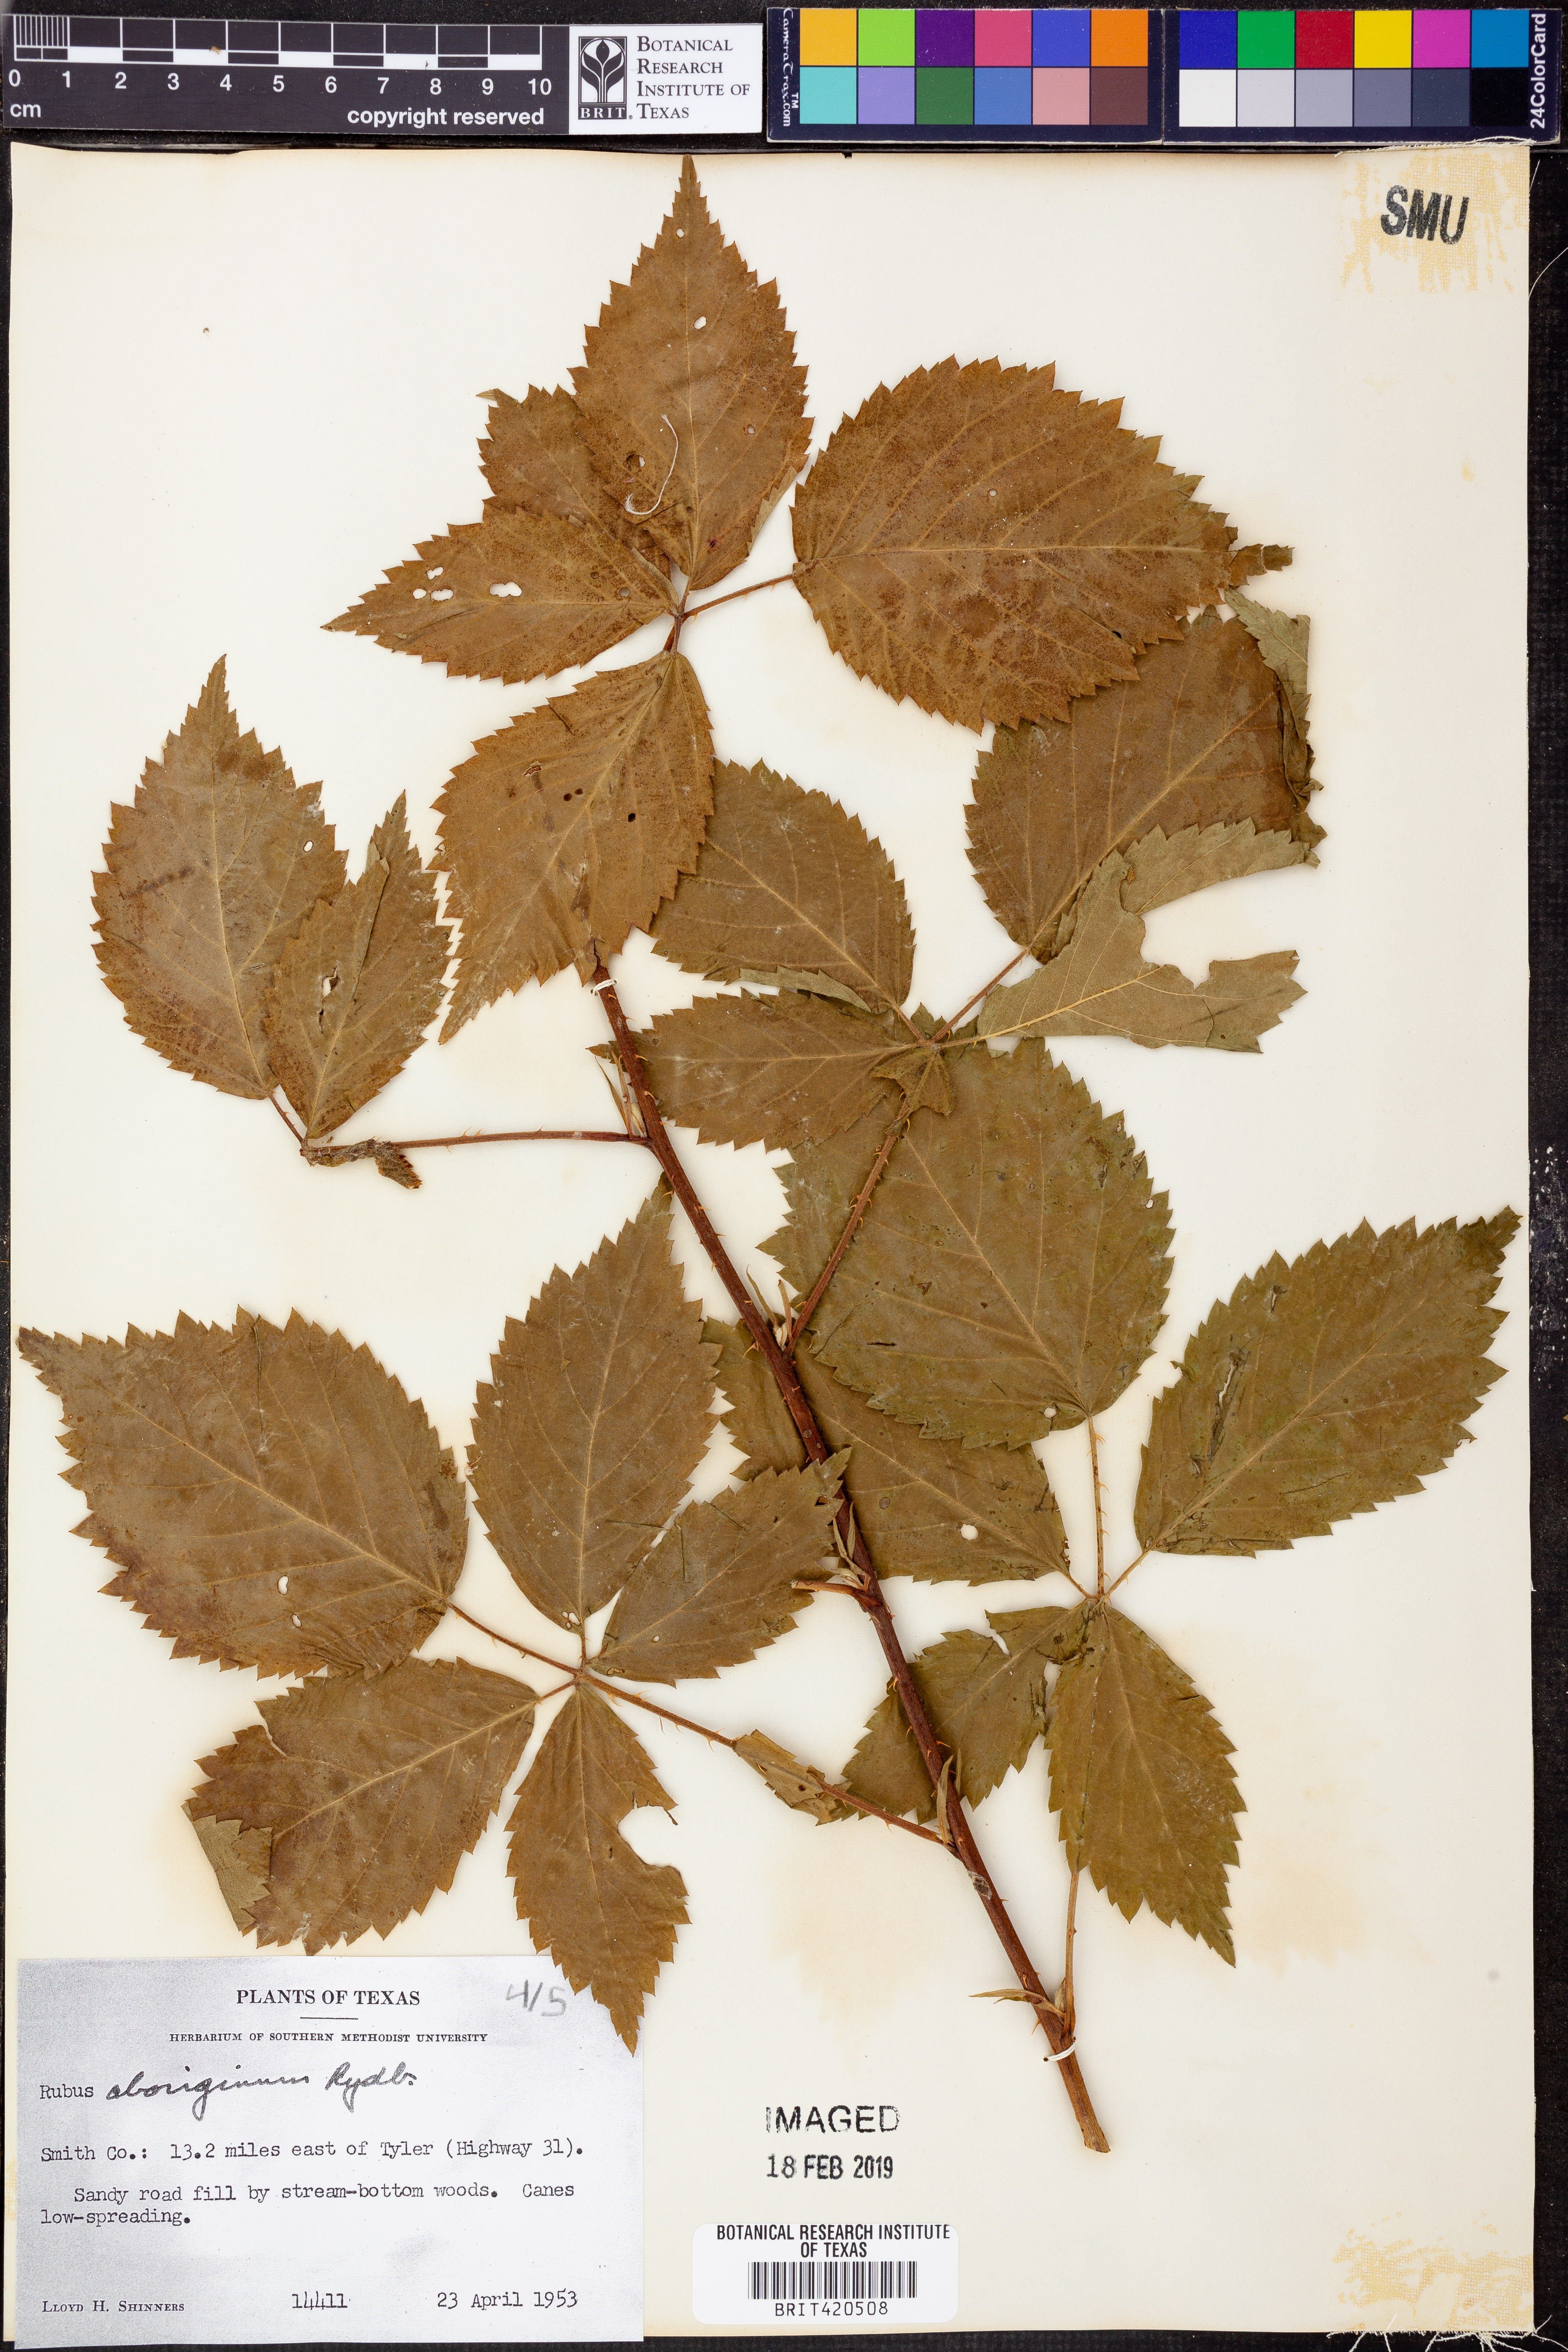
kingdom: Plantae
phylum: Tracheophyta
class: Magnoliopsida
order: Rosales
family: Rosaceae
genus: Rubus
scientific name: Rubus aboriginum
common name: Mayes dewberry
